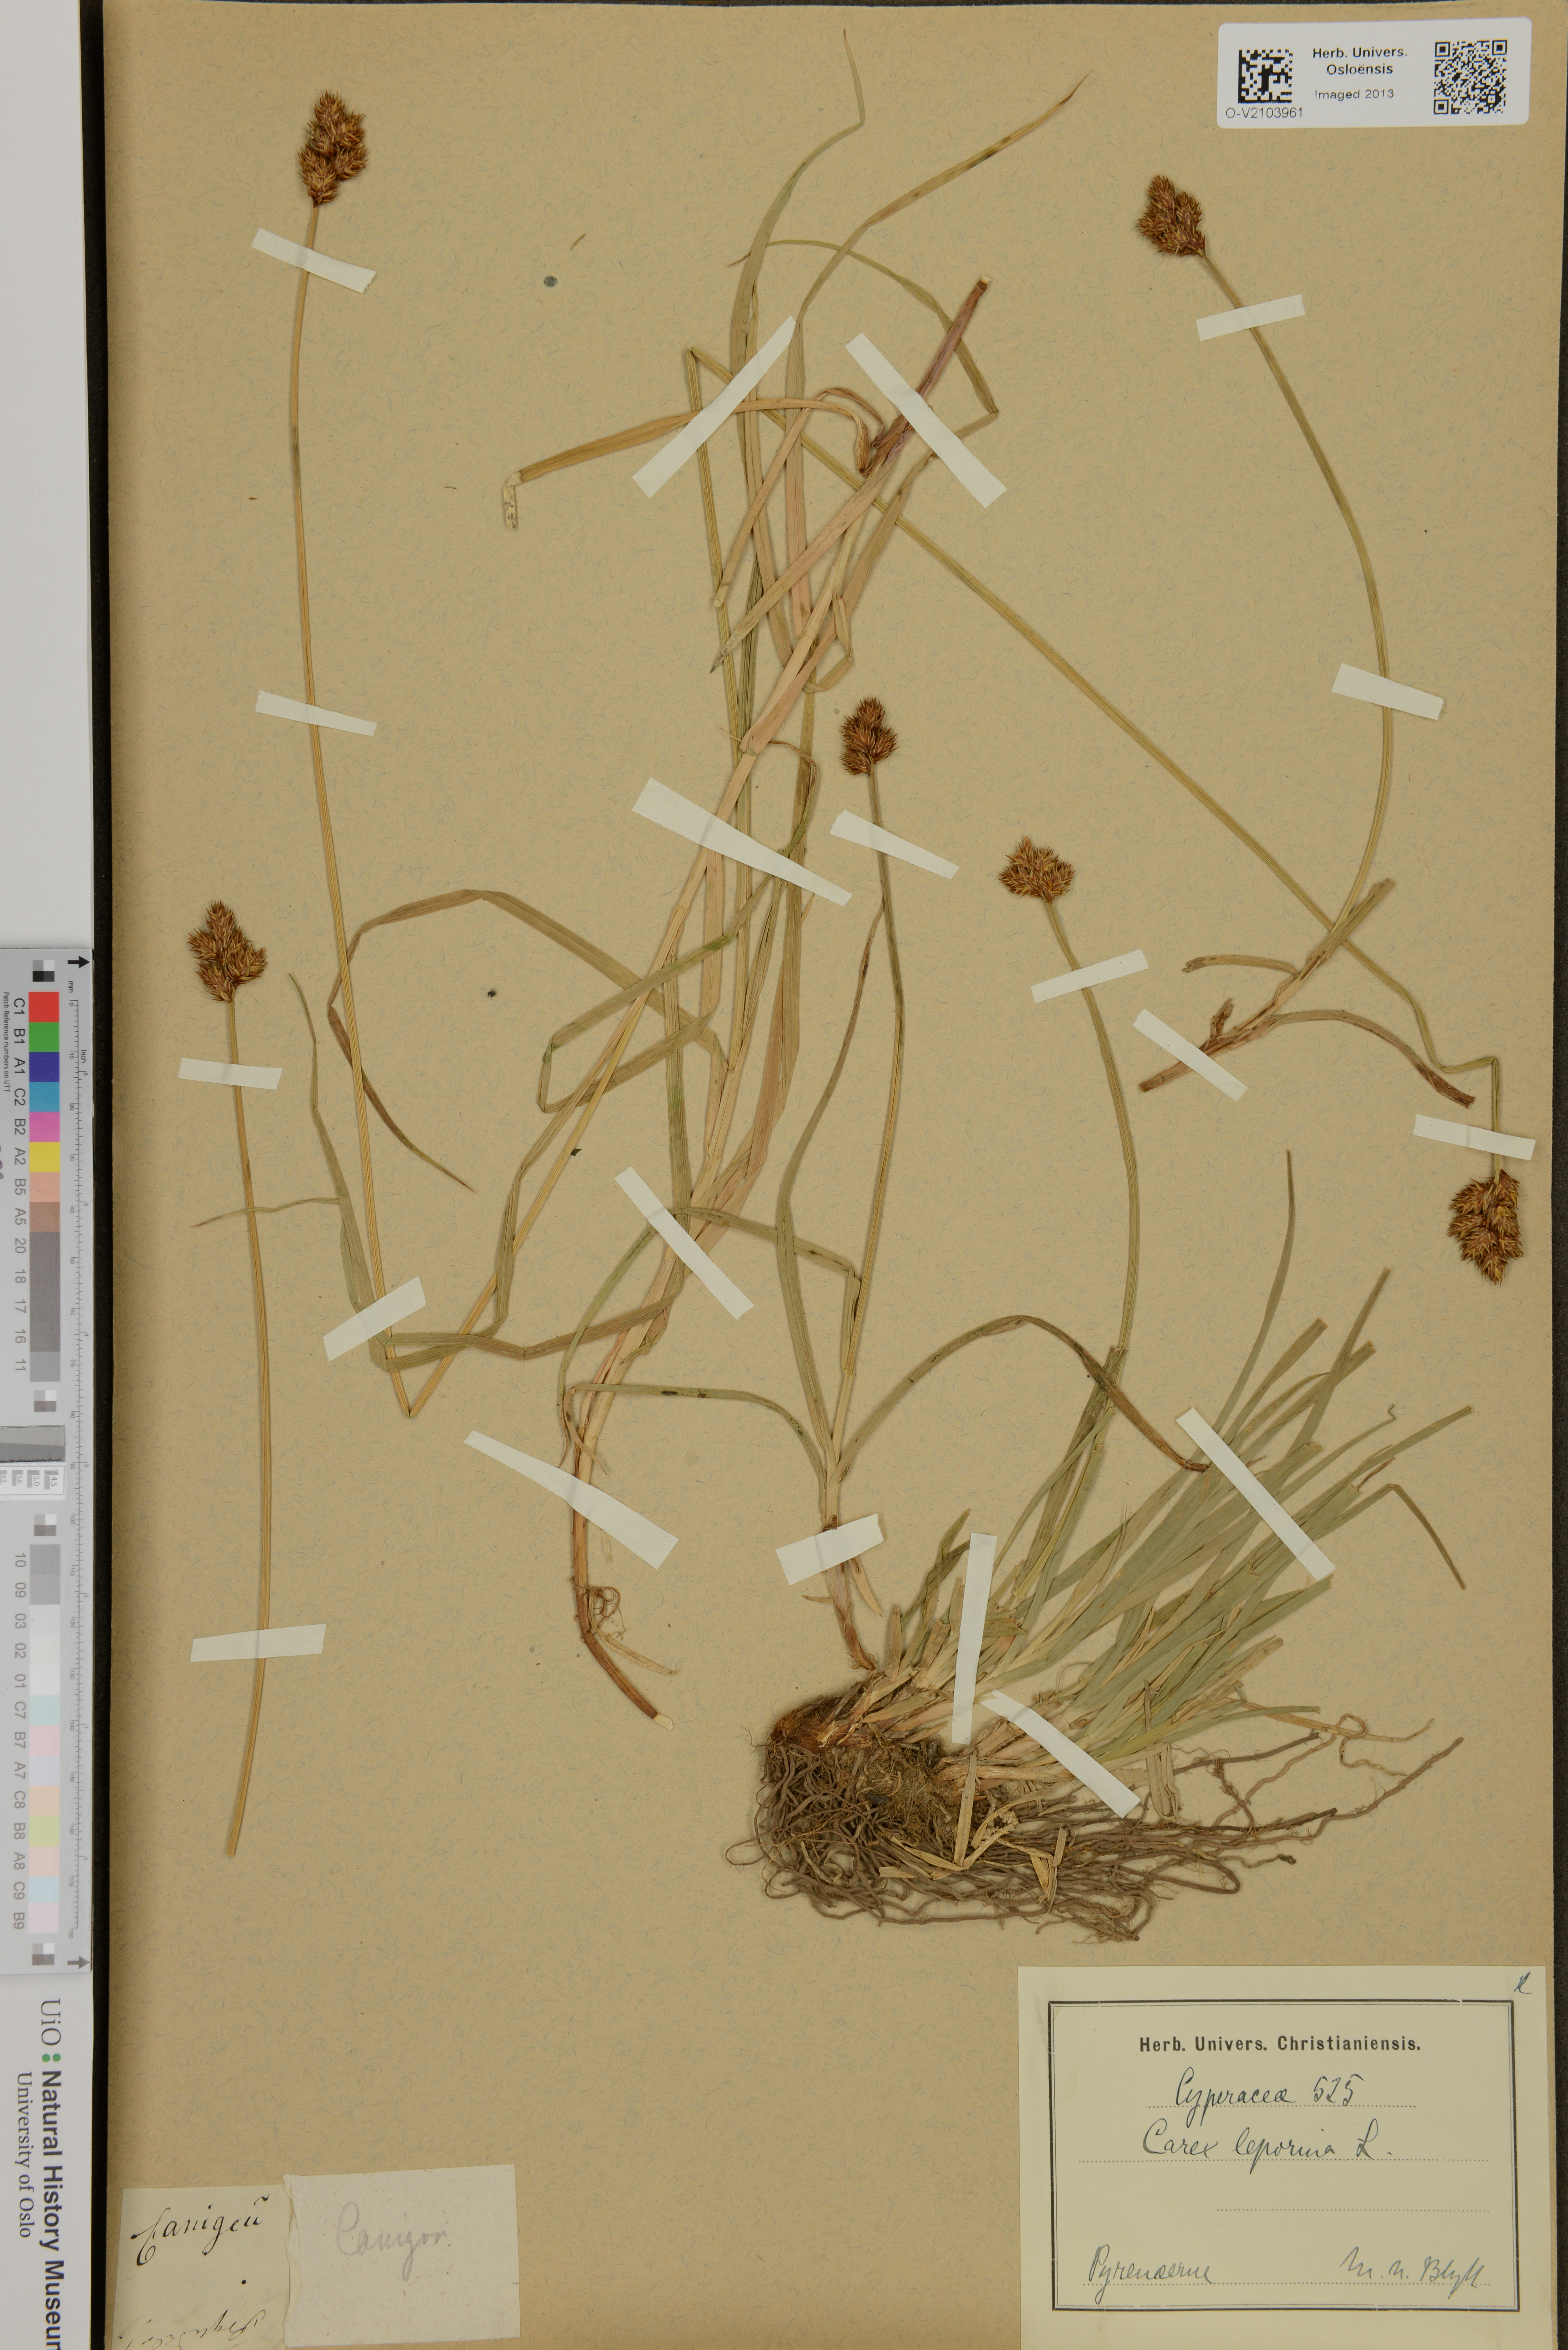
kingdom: Plantae
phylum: Tracheophyta
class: Liliopsida
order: Poales
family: Cyperaceae
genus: Carex
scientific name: Carex leporina
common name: Oval sedge
